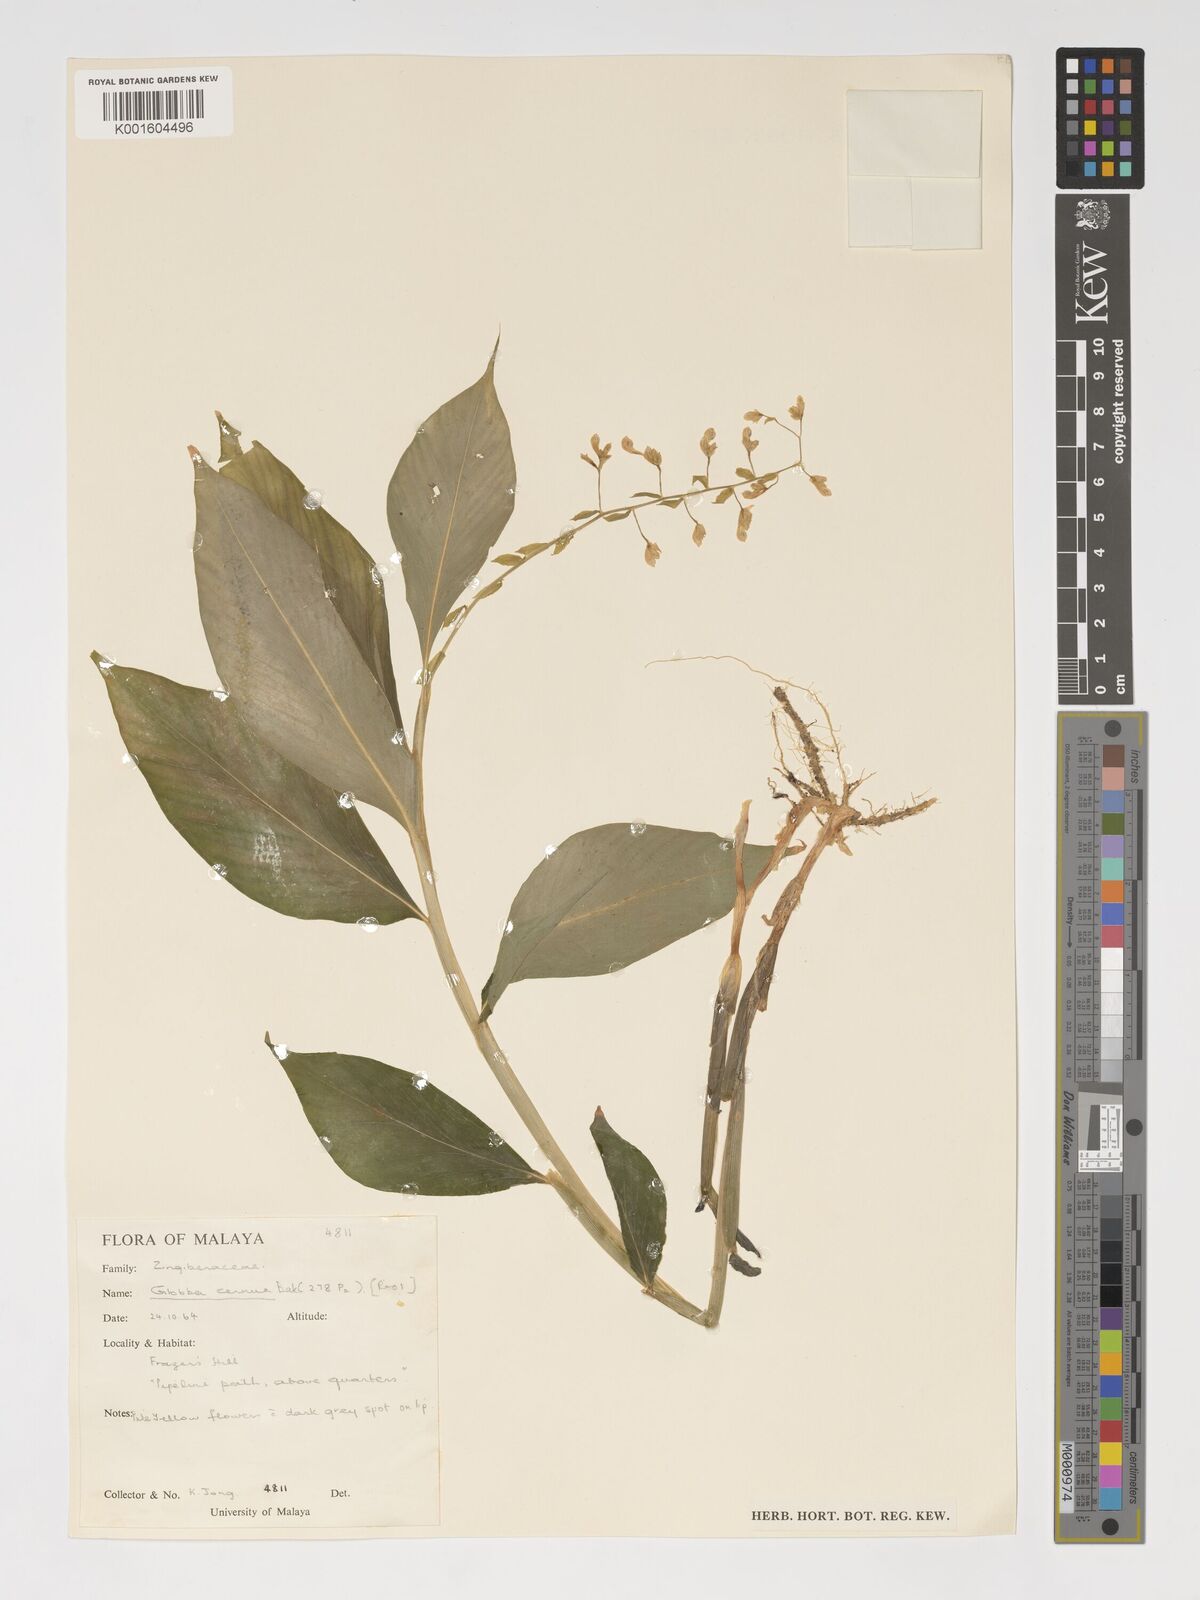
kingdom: Plantae
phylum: Tracheophyta
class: Liliopsida
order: Zingiberales
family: Zingiberaceae
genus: Globba
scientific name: Globba cernua
